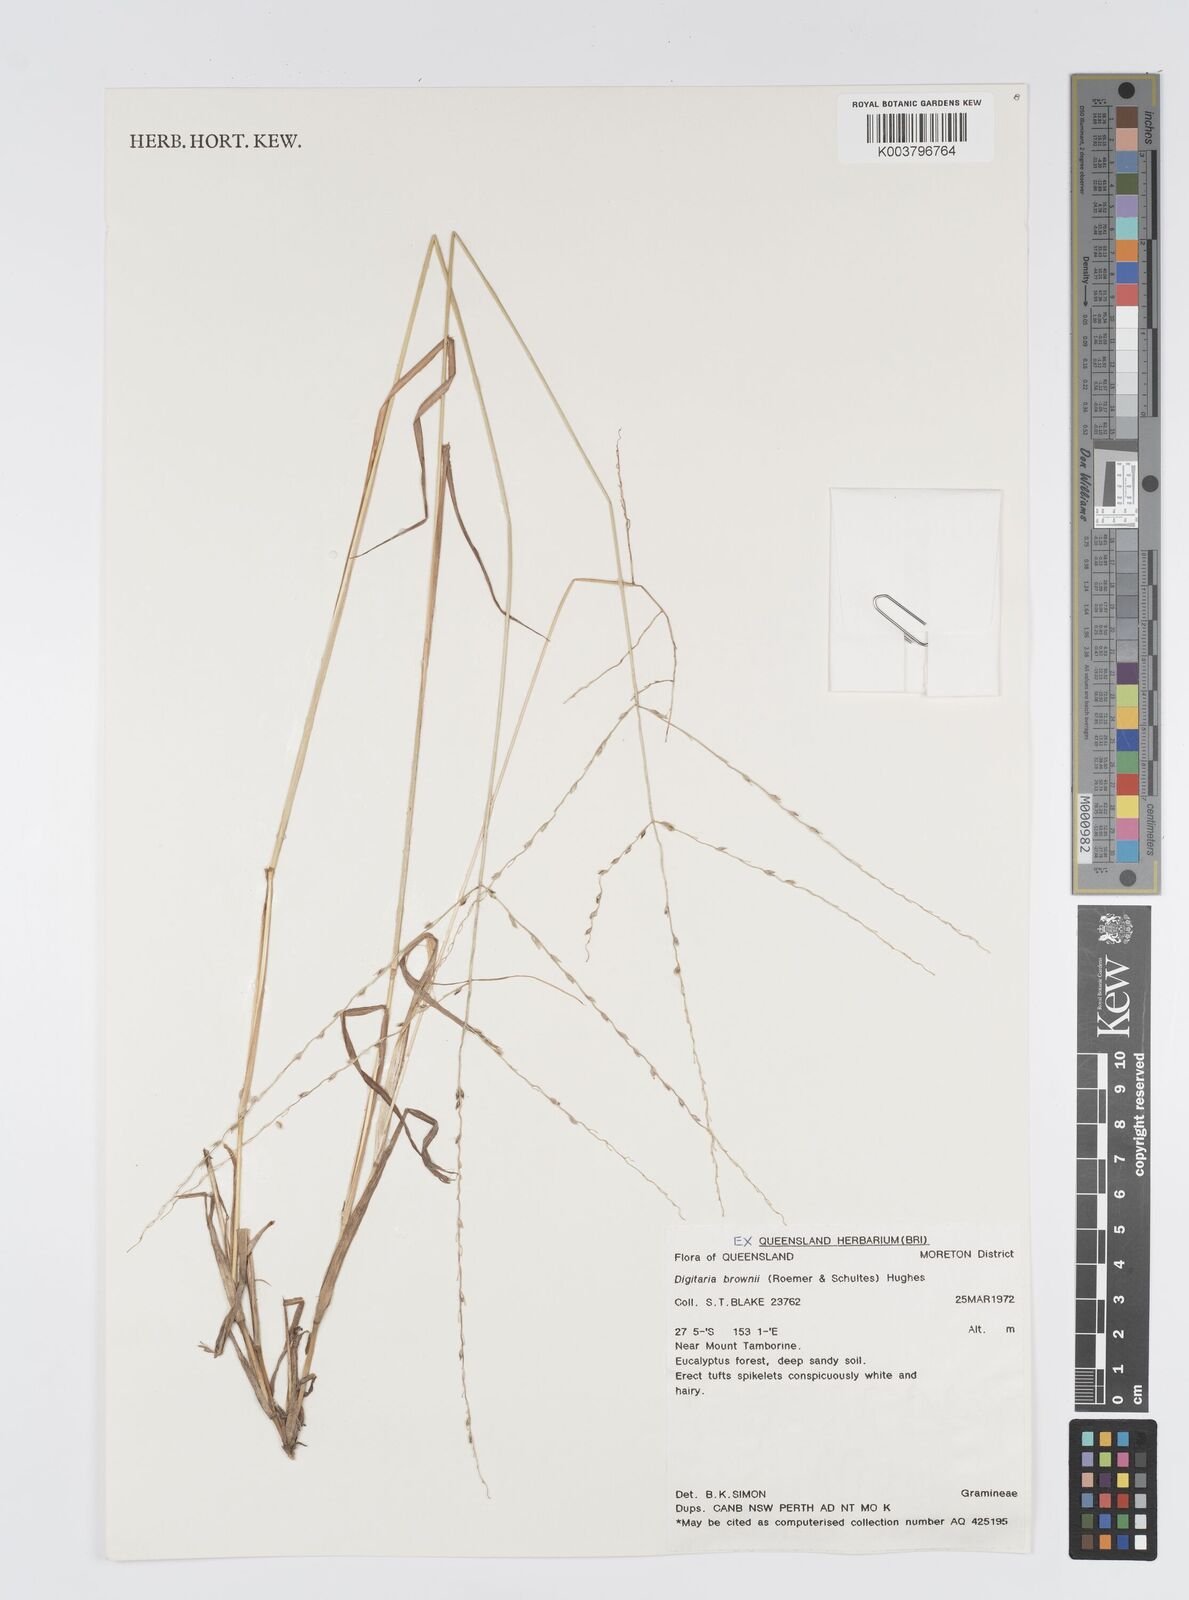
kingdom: Plantae
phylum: Tracheophyta
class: Liliopsida
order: Poales
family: Poaceae
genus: Digitaria
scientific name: Digitaria brownii
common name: Cotton grass
